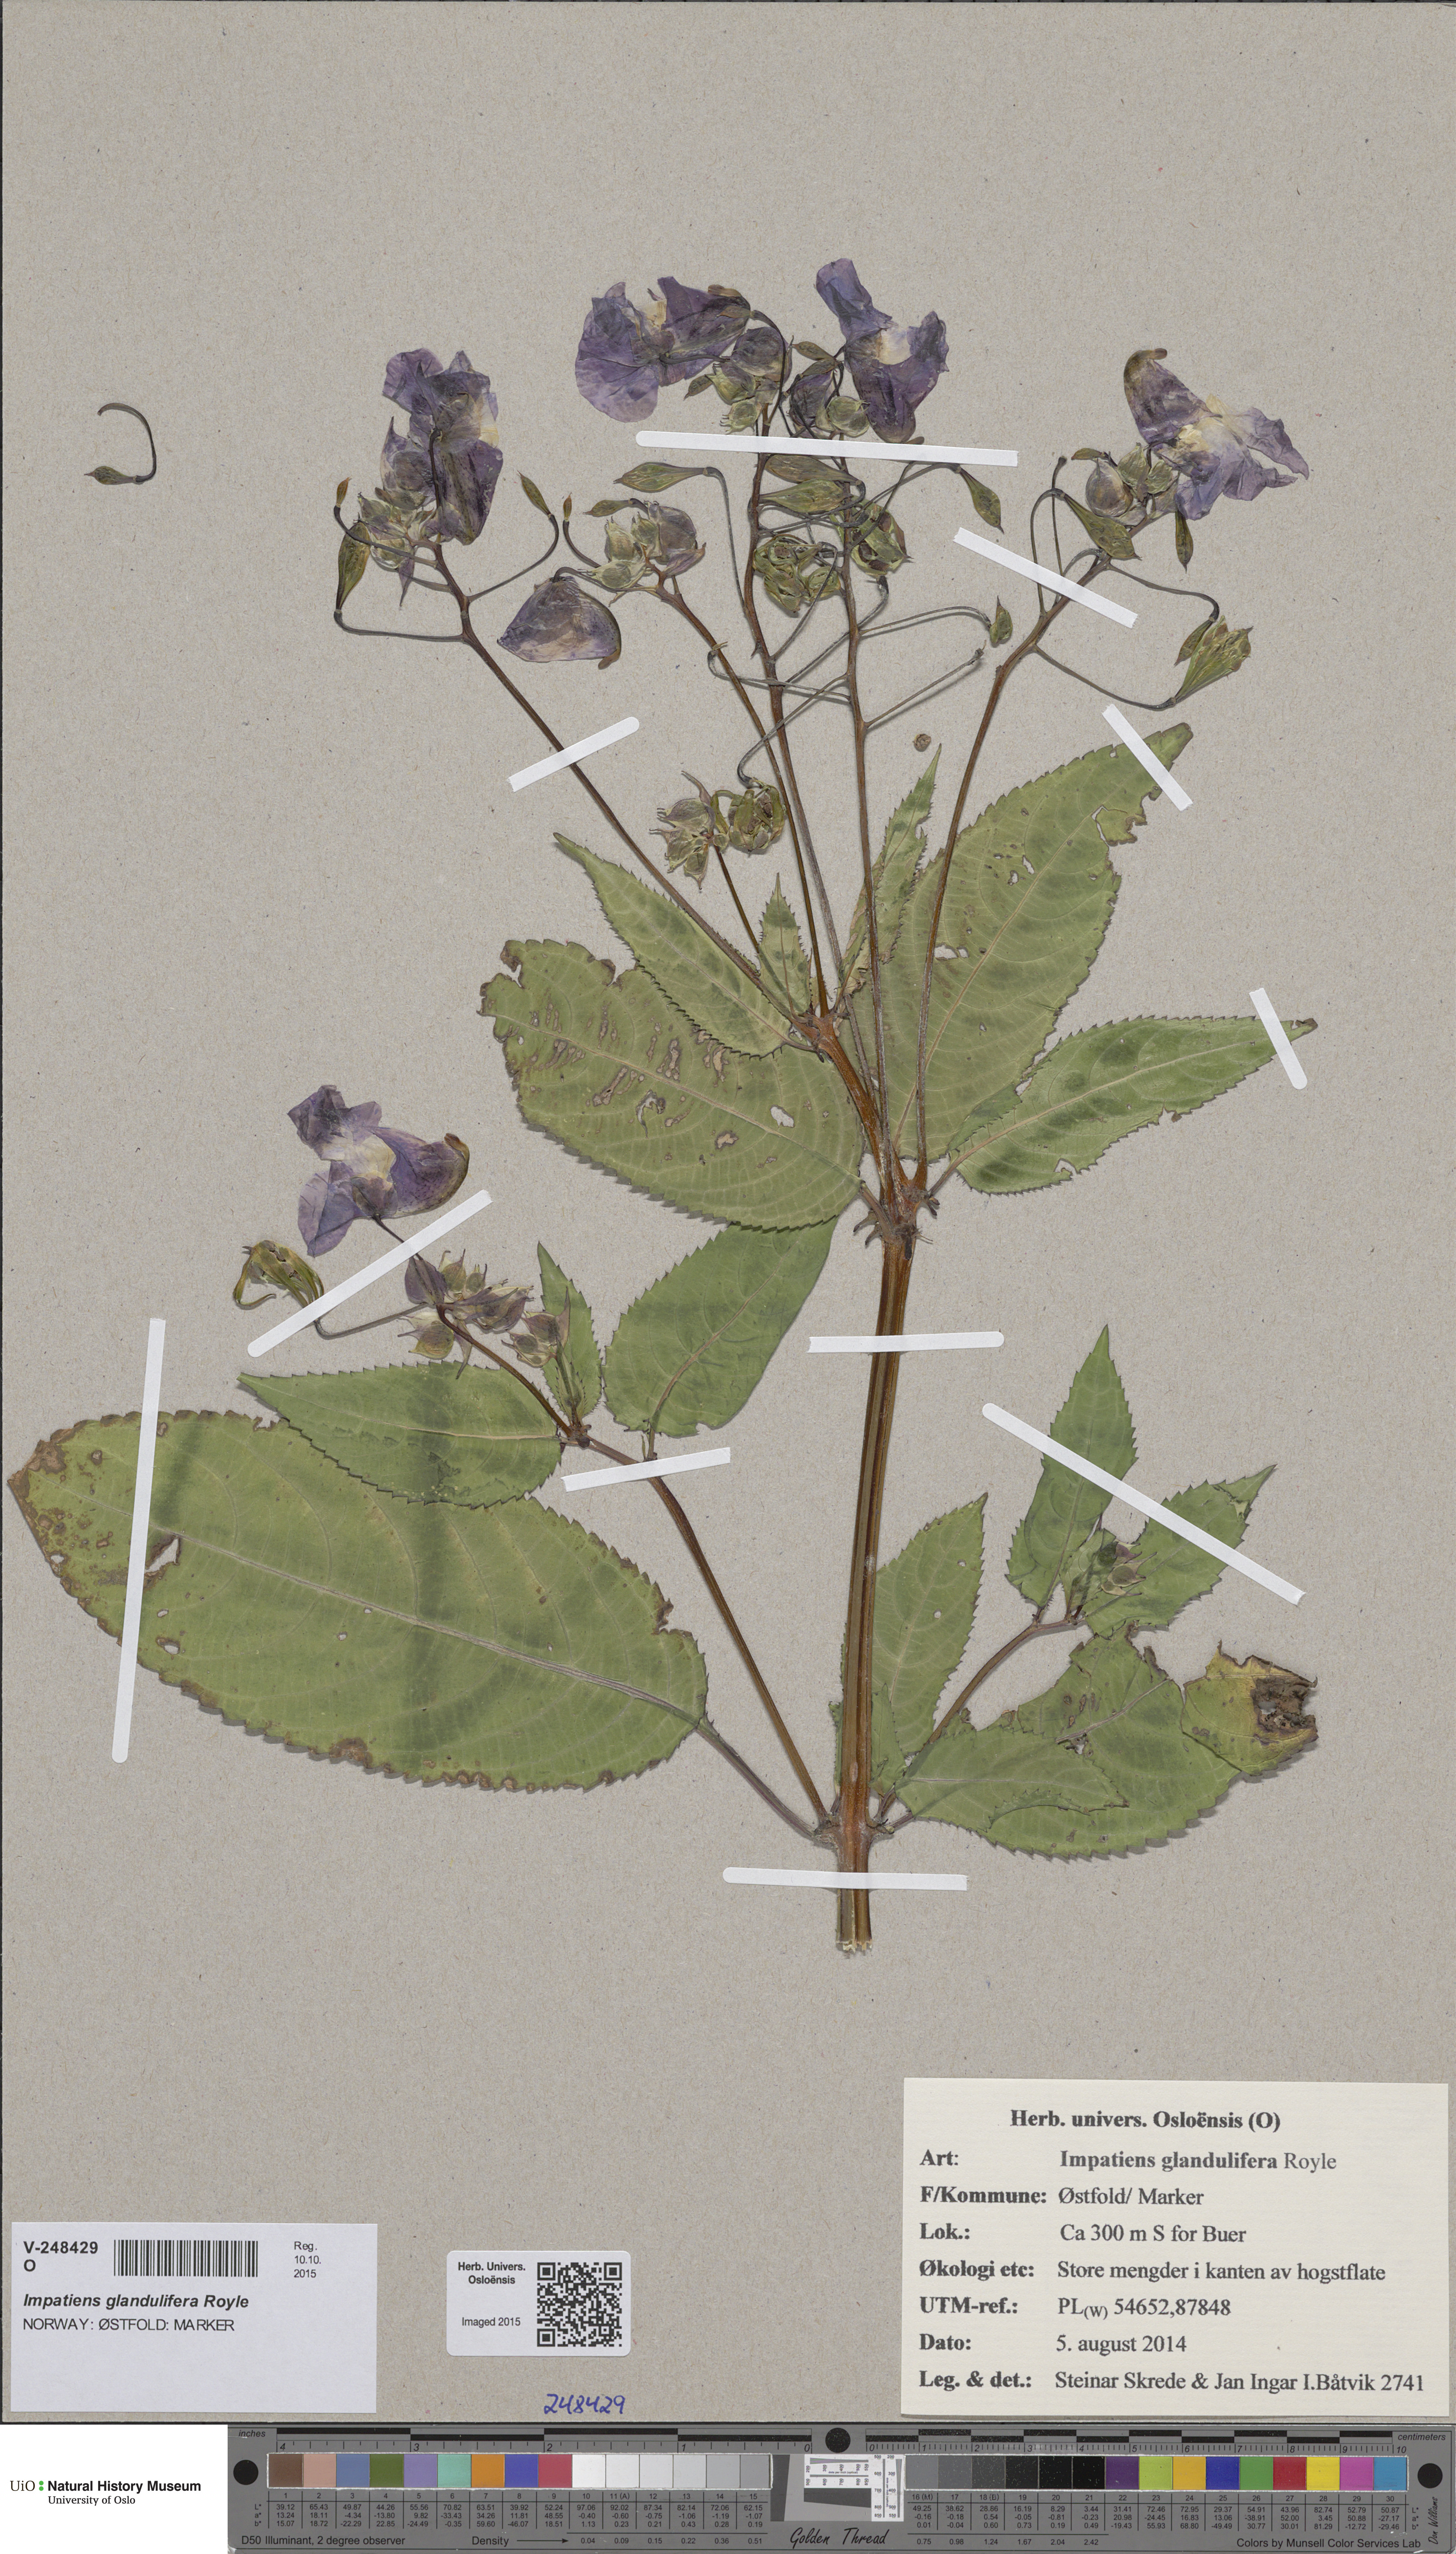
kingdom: Plantae
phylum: Tracheophyta
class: Magnoliopsida
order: Ericales
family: Balsaminaceae
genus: Impatiens
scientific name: Impatiens glandulifera
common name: Himalayan balsam
